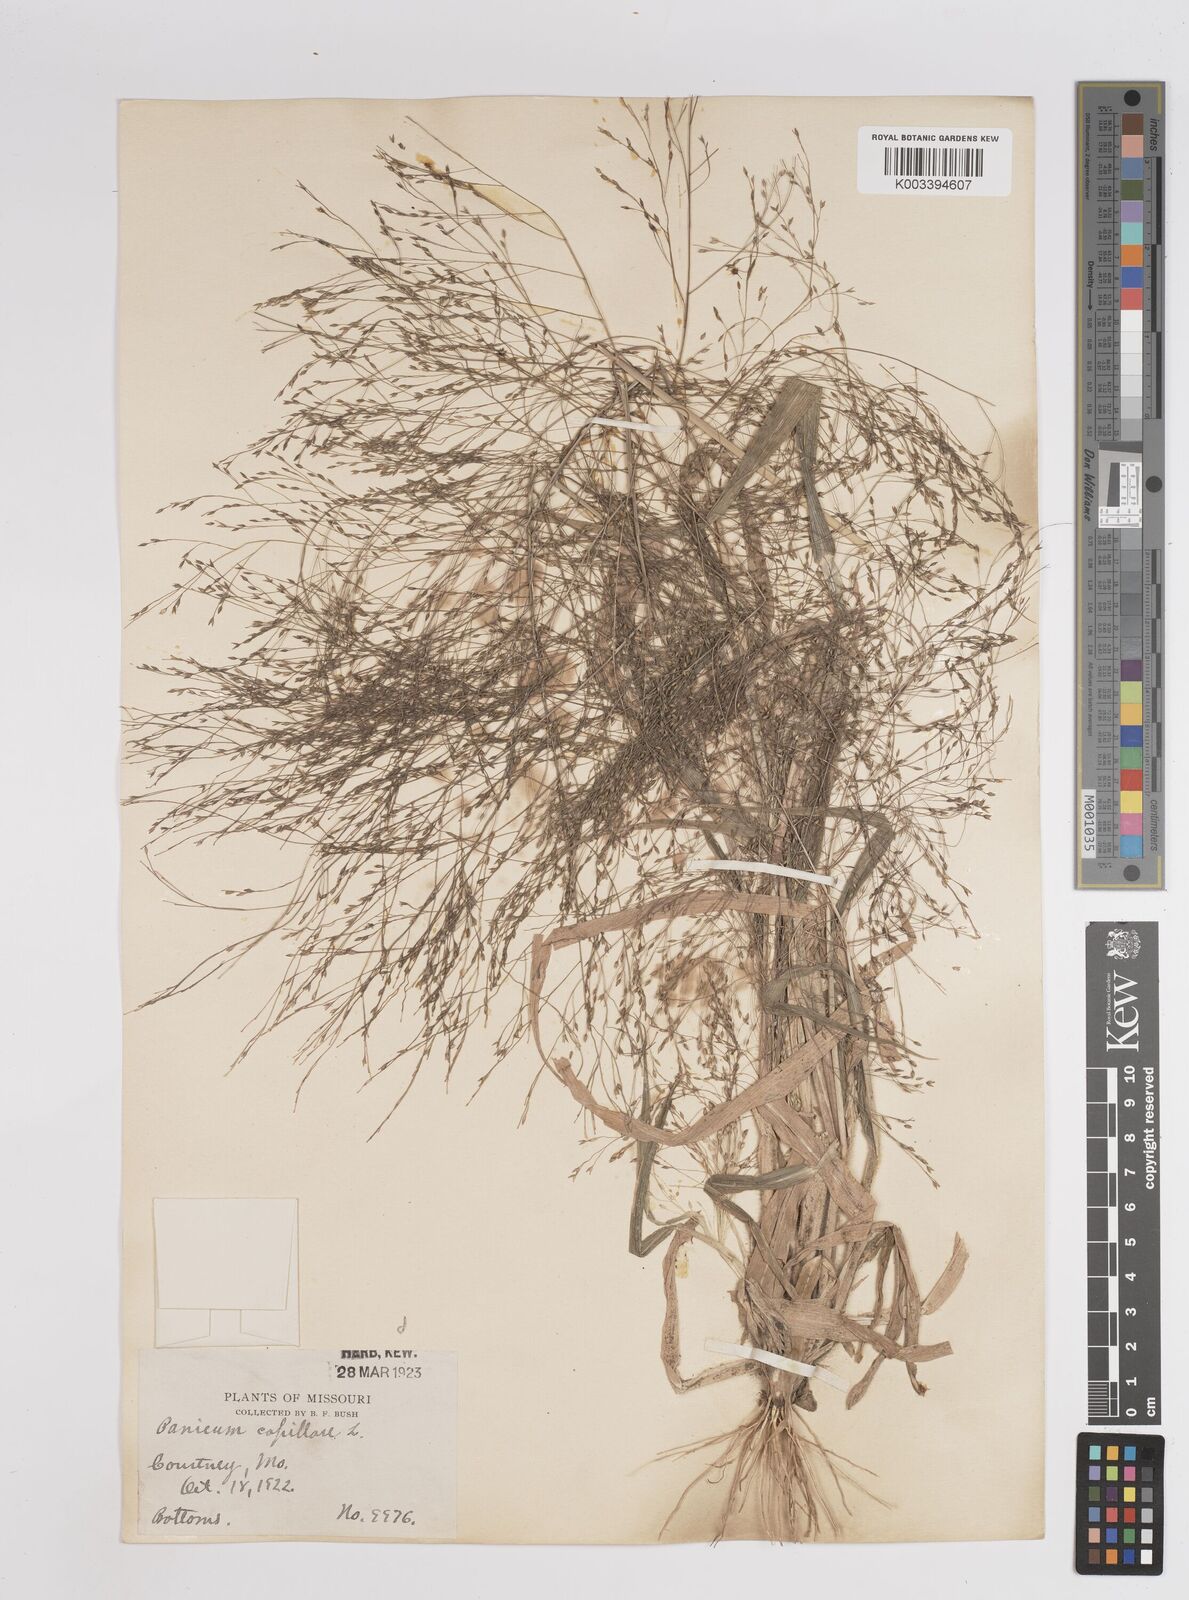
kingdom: Plantae
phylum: Tracheophyta
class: Liliopsida
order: Poales
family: Poaceae
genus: Panicum
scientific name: Panicum capillare
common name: Witch-grass
